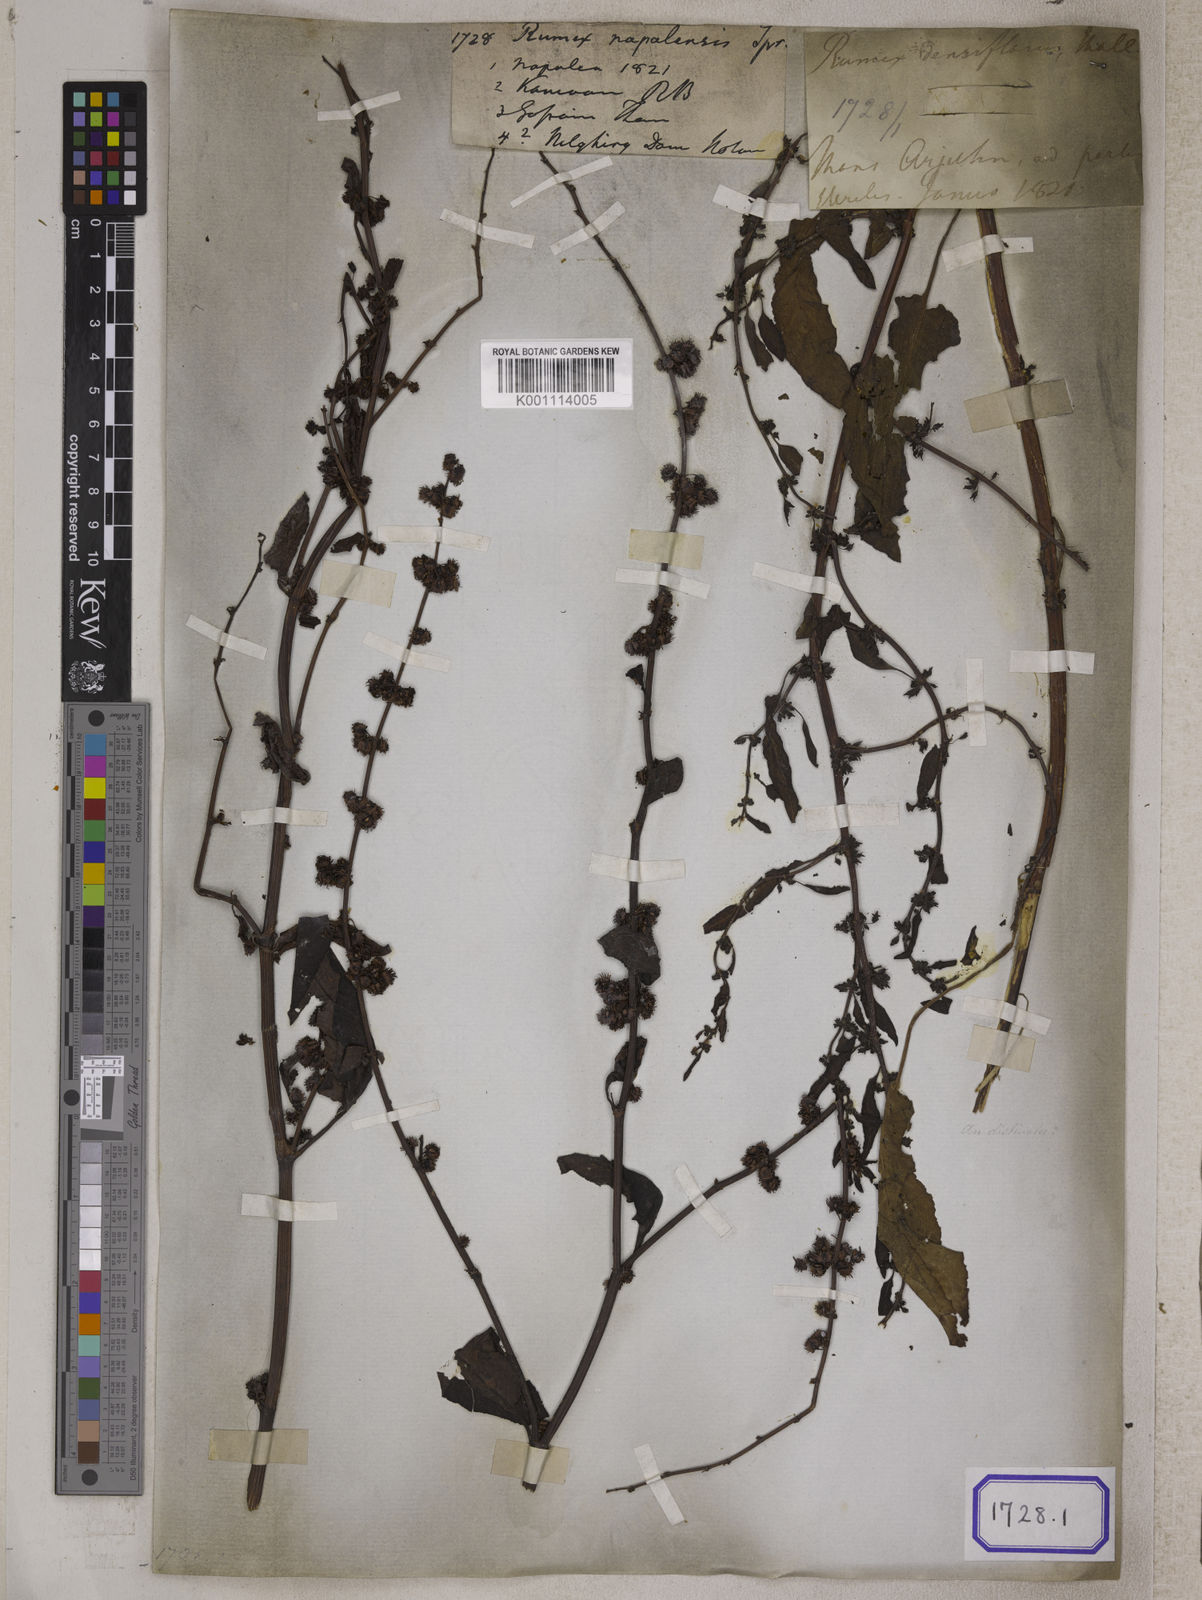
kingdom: Plantae
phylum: Tracheophyta
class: Magnoliopsida
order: Caryophyllales
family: Polygonaceae
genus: Rumex
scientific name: Rumex nepalensis
